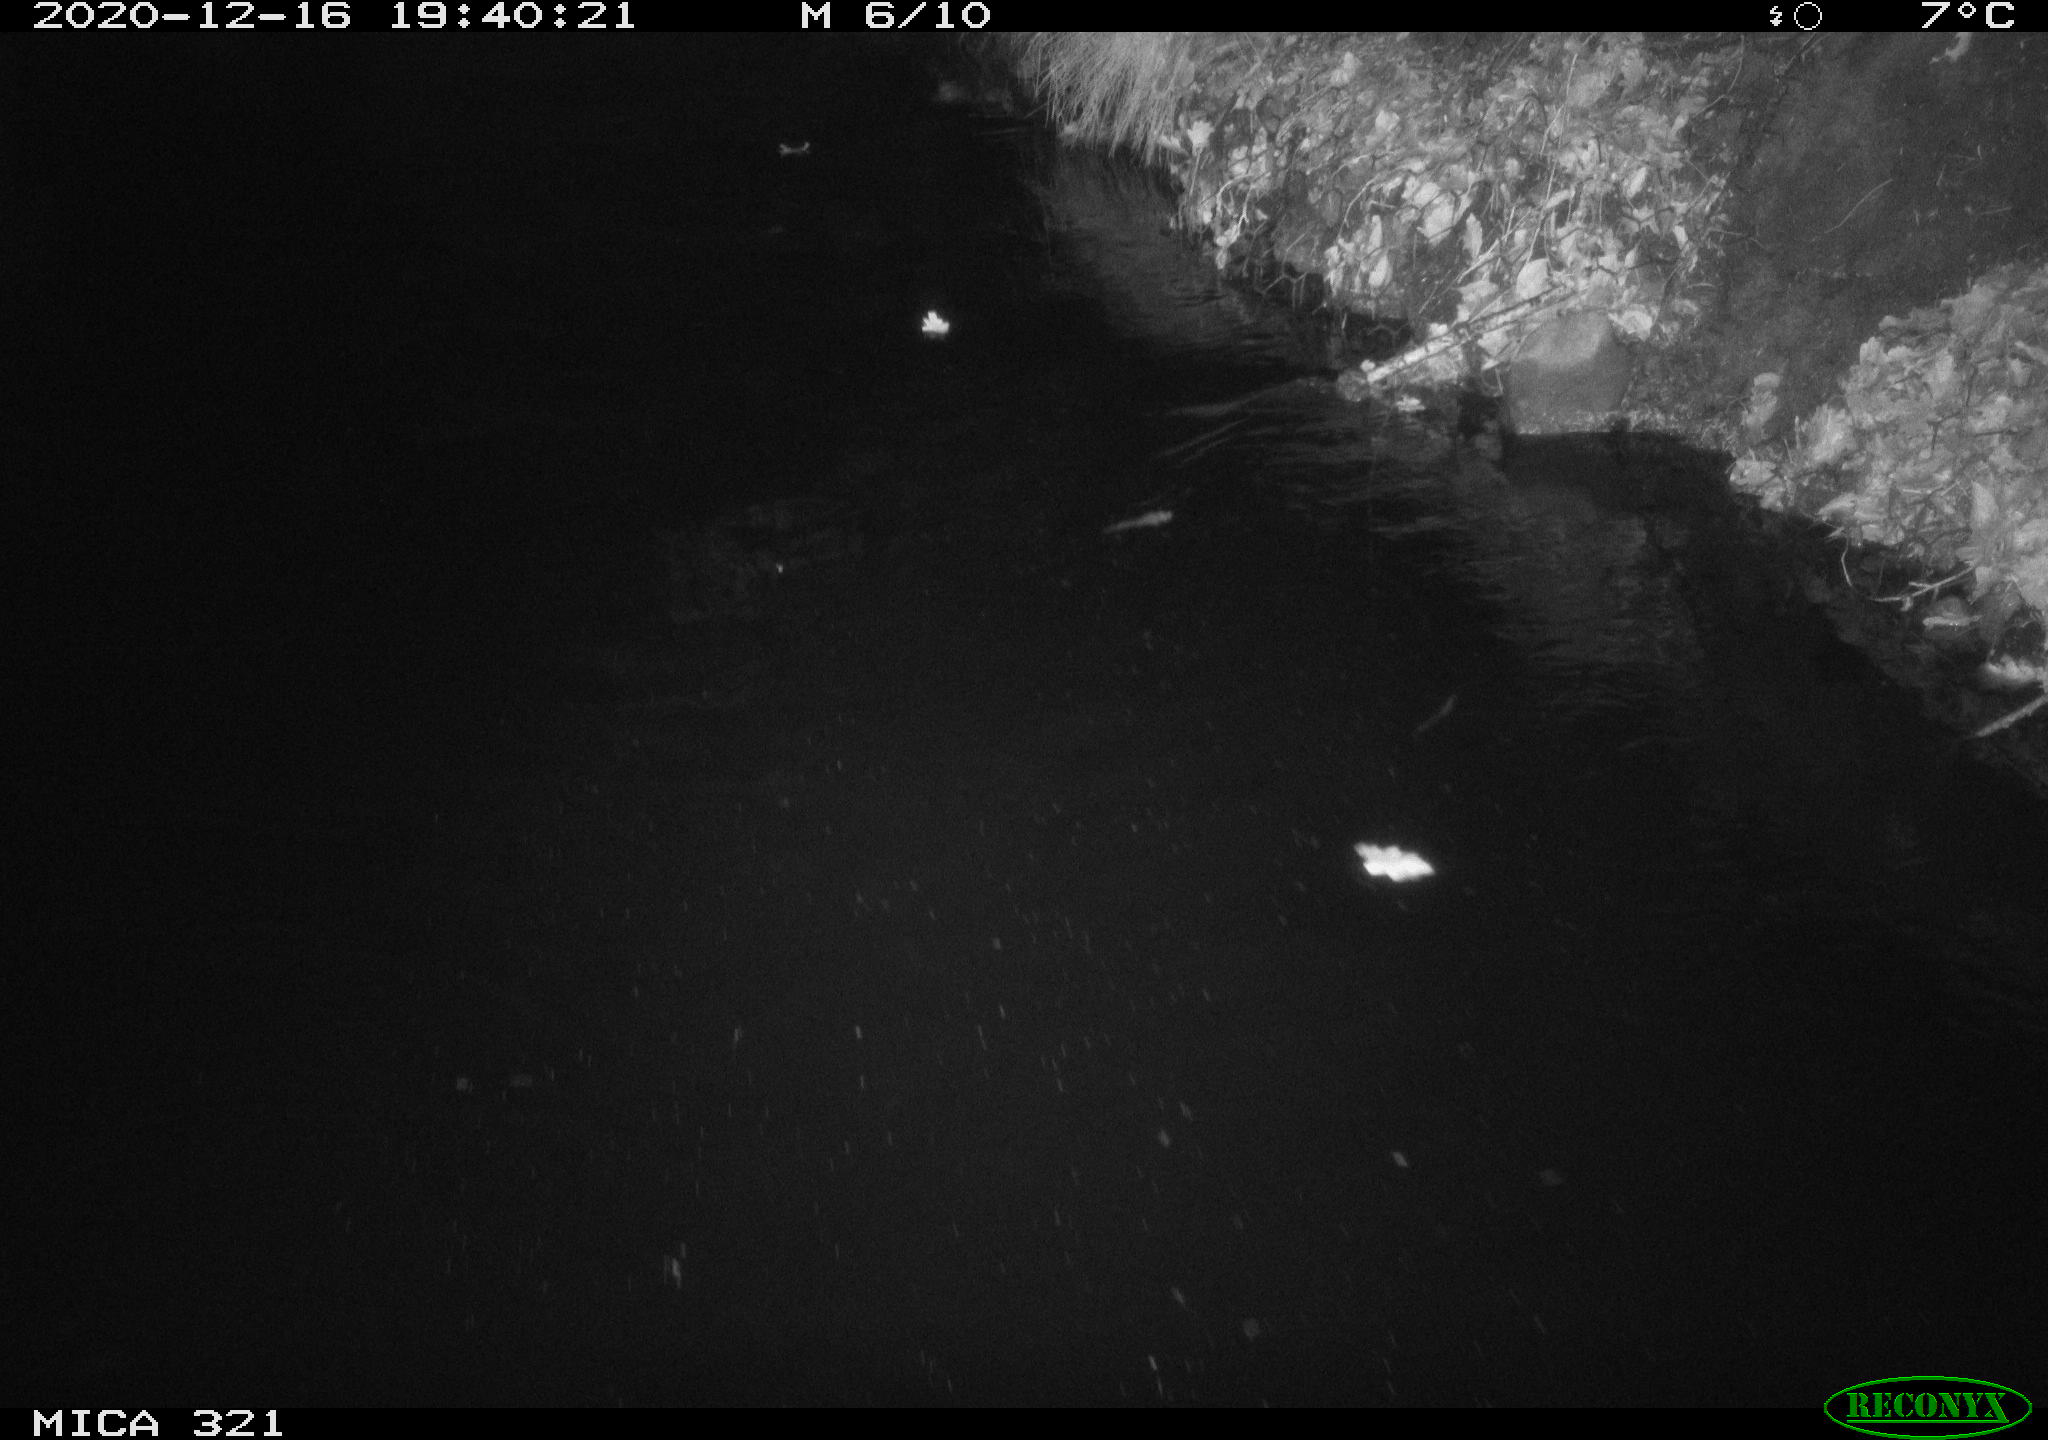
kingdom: Animalia
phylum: Chordata
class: Aves
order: Anseriformes
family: Anatidae
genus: Anas
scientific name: Anas platyrhynchos
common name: Mallard
